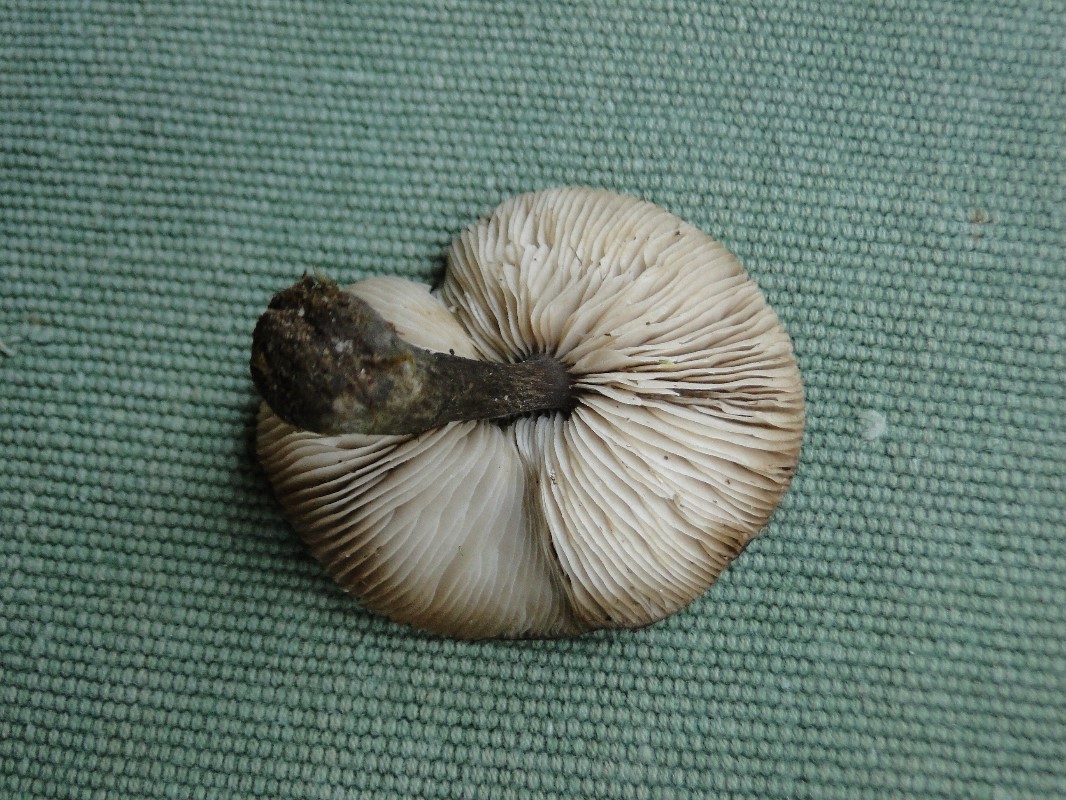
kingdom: Fungi
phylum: Basidiomycota
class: Agaricomycetes
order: Agaricales
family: Tricholomataceae
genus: Melanoleuca
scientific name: Melanoleuca exscissa
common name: gusten munkehat
